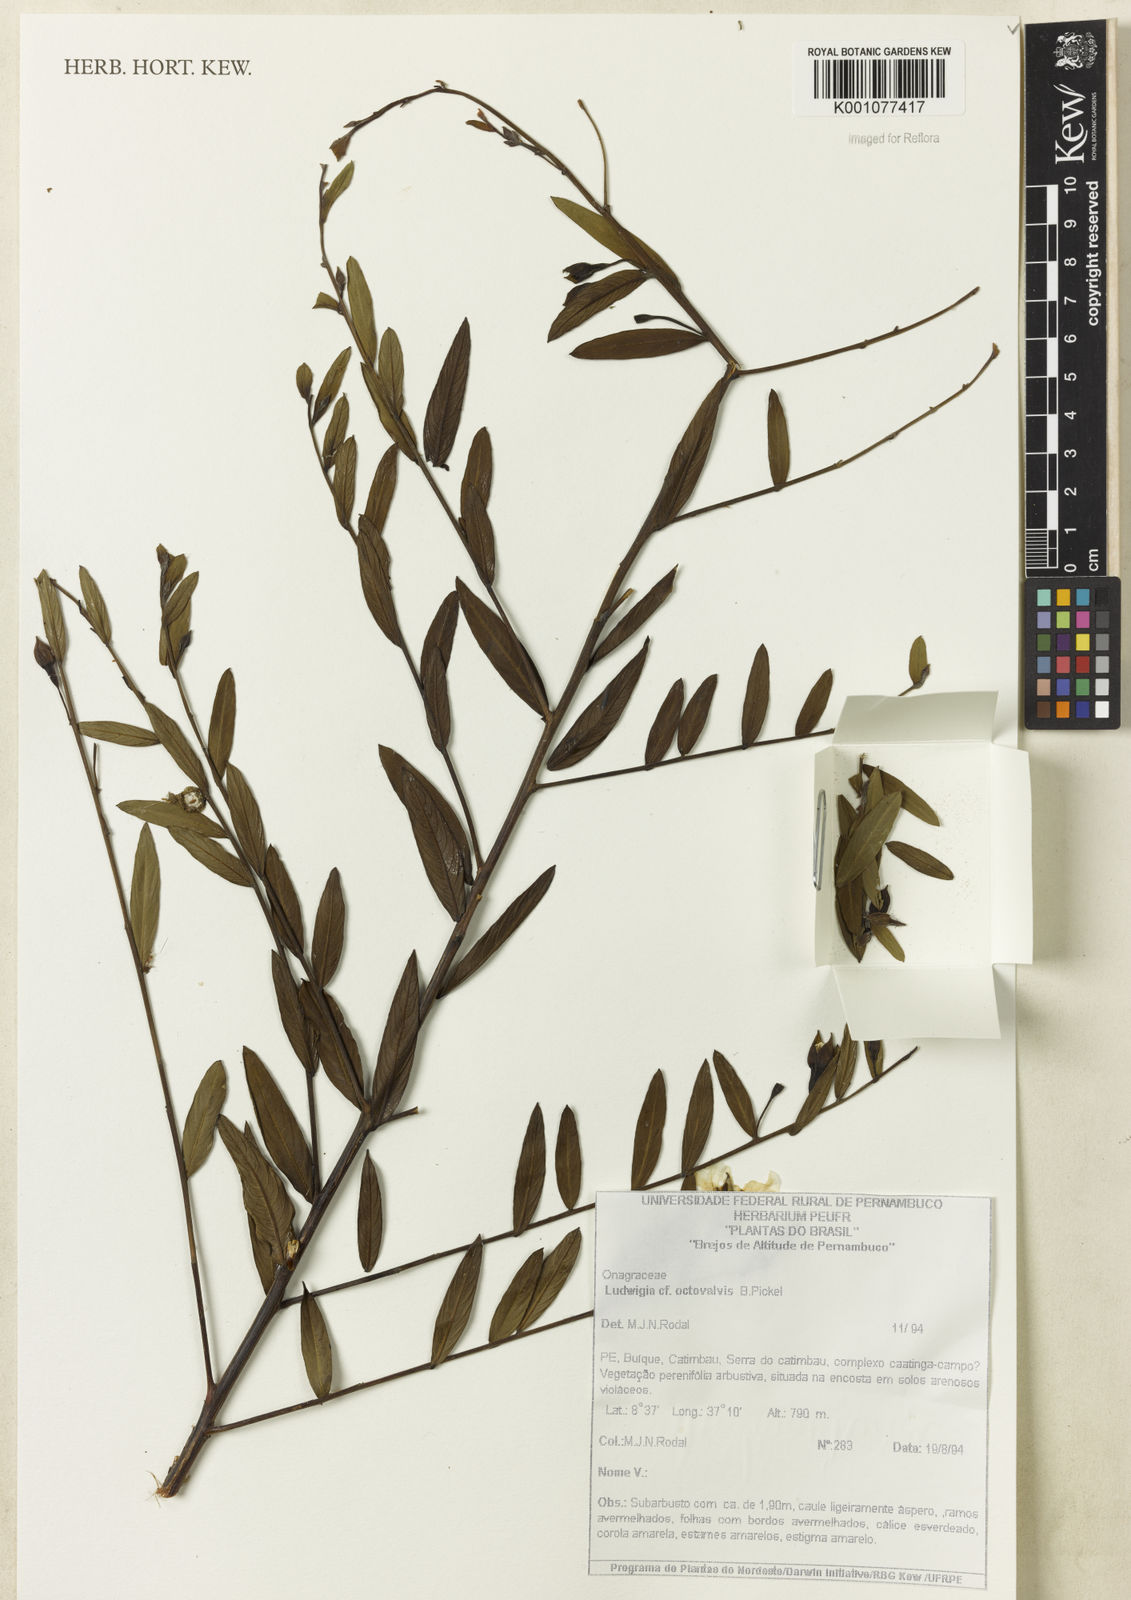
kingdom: Plantae
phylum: Tracheophyta
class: Magnoliopsida
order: Myrtales
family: Onagraceae
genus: Ludwigia
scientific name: Ludwigia nervosa
